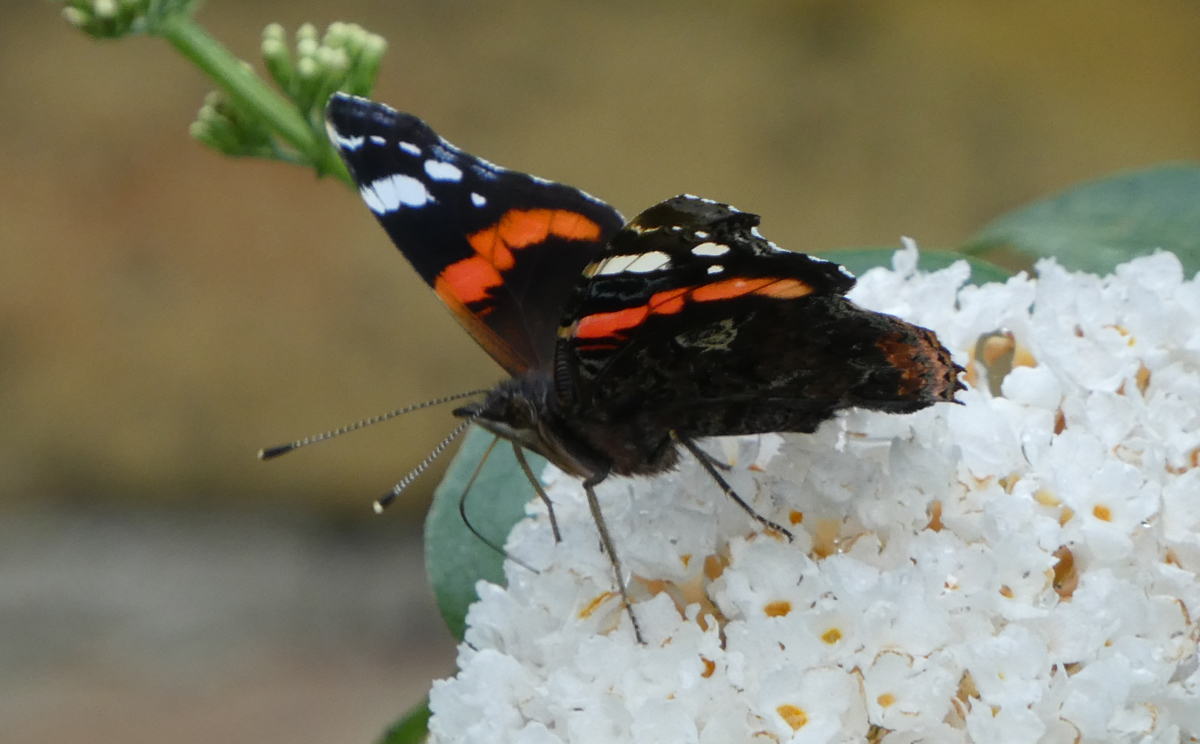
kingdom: Animalia
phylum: Arthropoda
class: Insecta
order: Lepidoptera
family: Nymphalidae
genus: Vanessa
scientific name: Vanessa atalanta
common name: Red admiral
